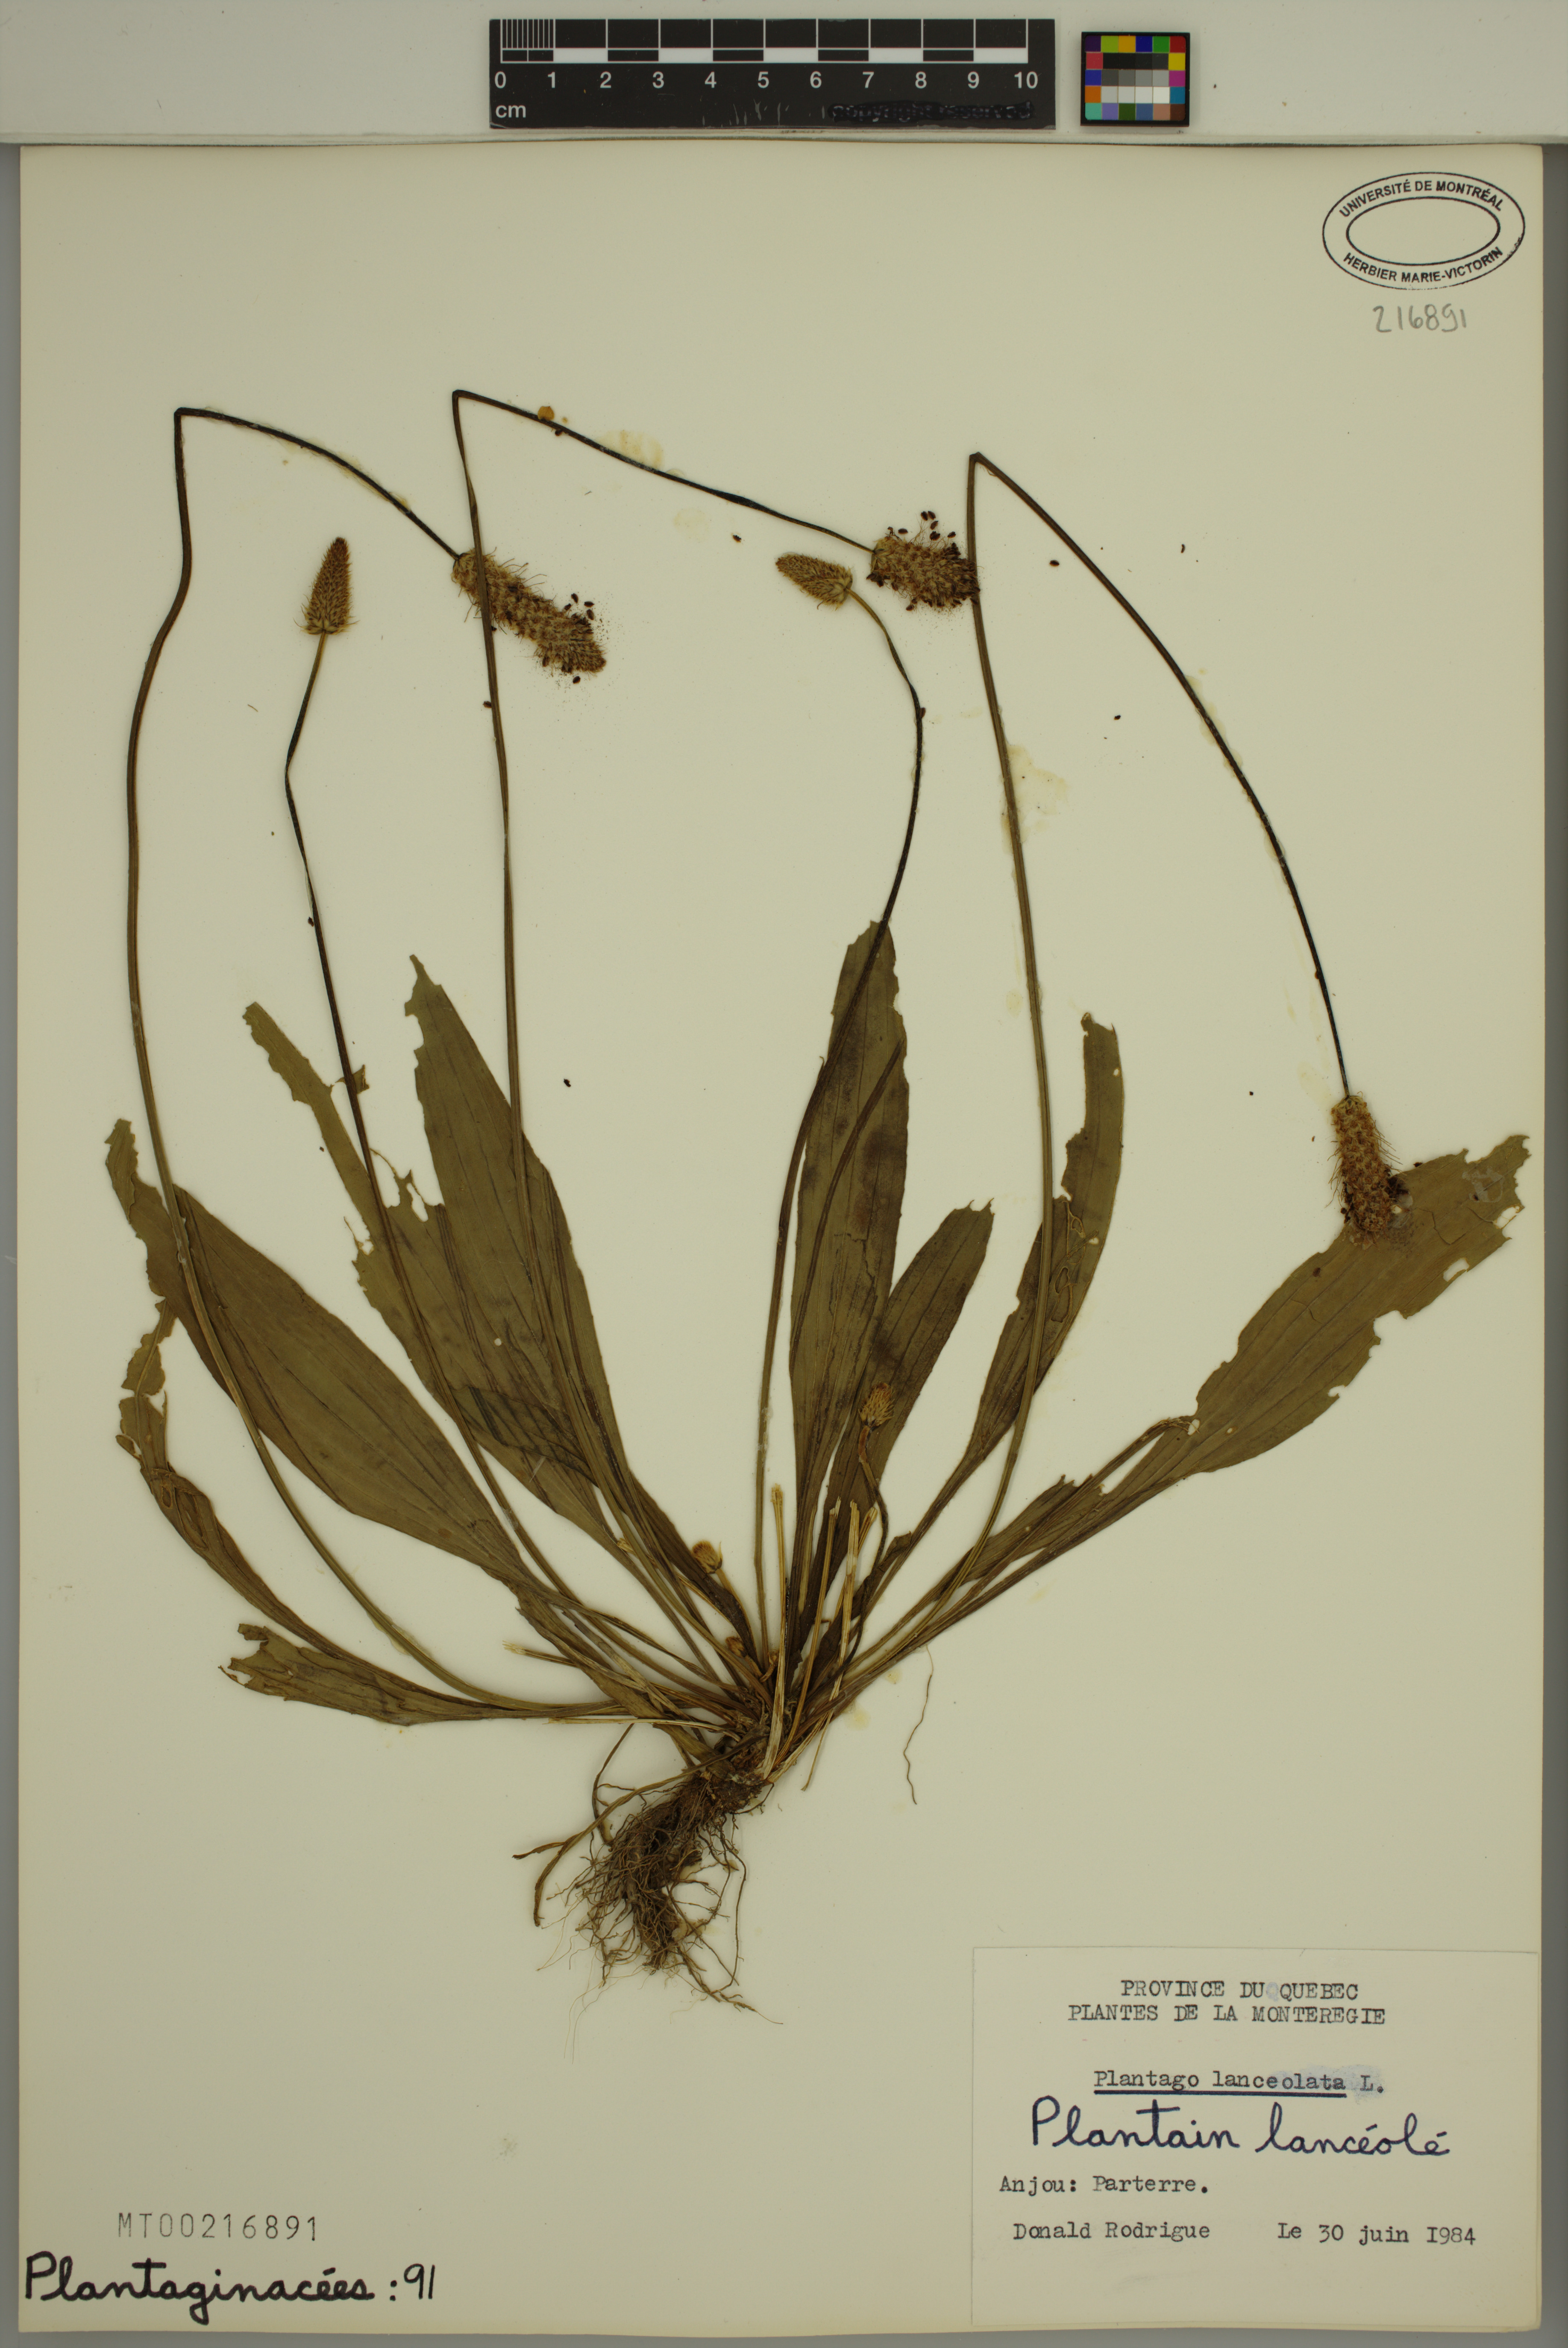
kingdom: Plantae
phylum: Tracheophyta
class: Magnoliopsida
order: Lamiales
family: Plantaginaceae
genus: Plantago
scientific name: Plantago lanceolata
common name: Ribwort plantain
